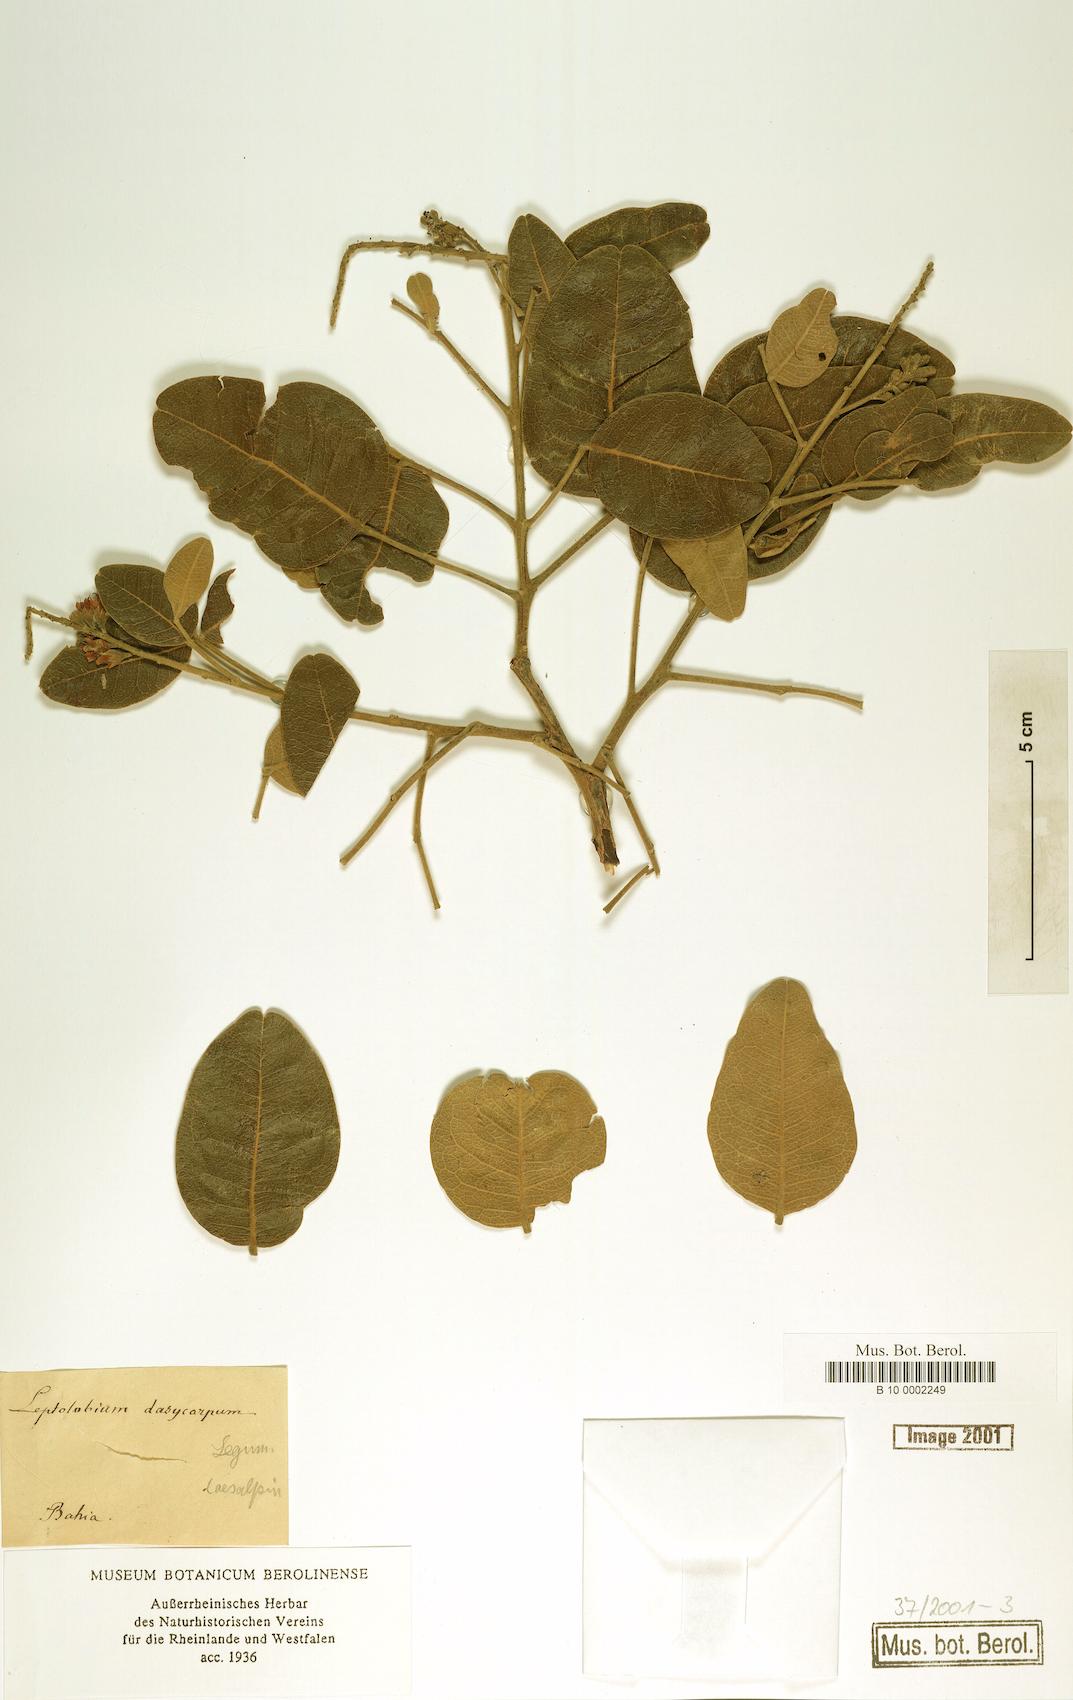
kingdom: Plantae
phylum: Tracheophyta
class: Magnoliopsida
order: Fabales
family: Fabaceae
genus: Leptolobium
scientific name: Leptolobium dasycarpum
